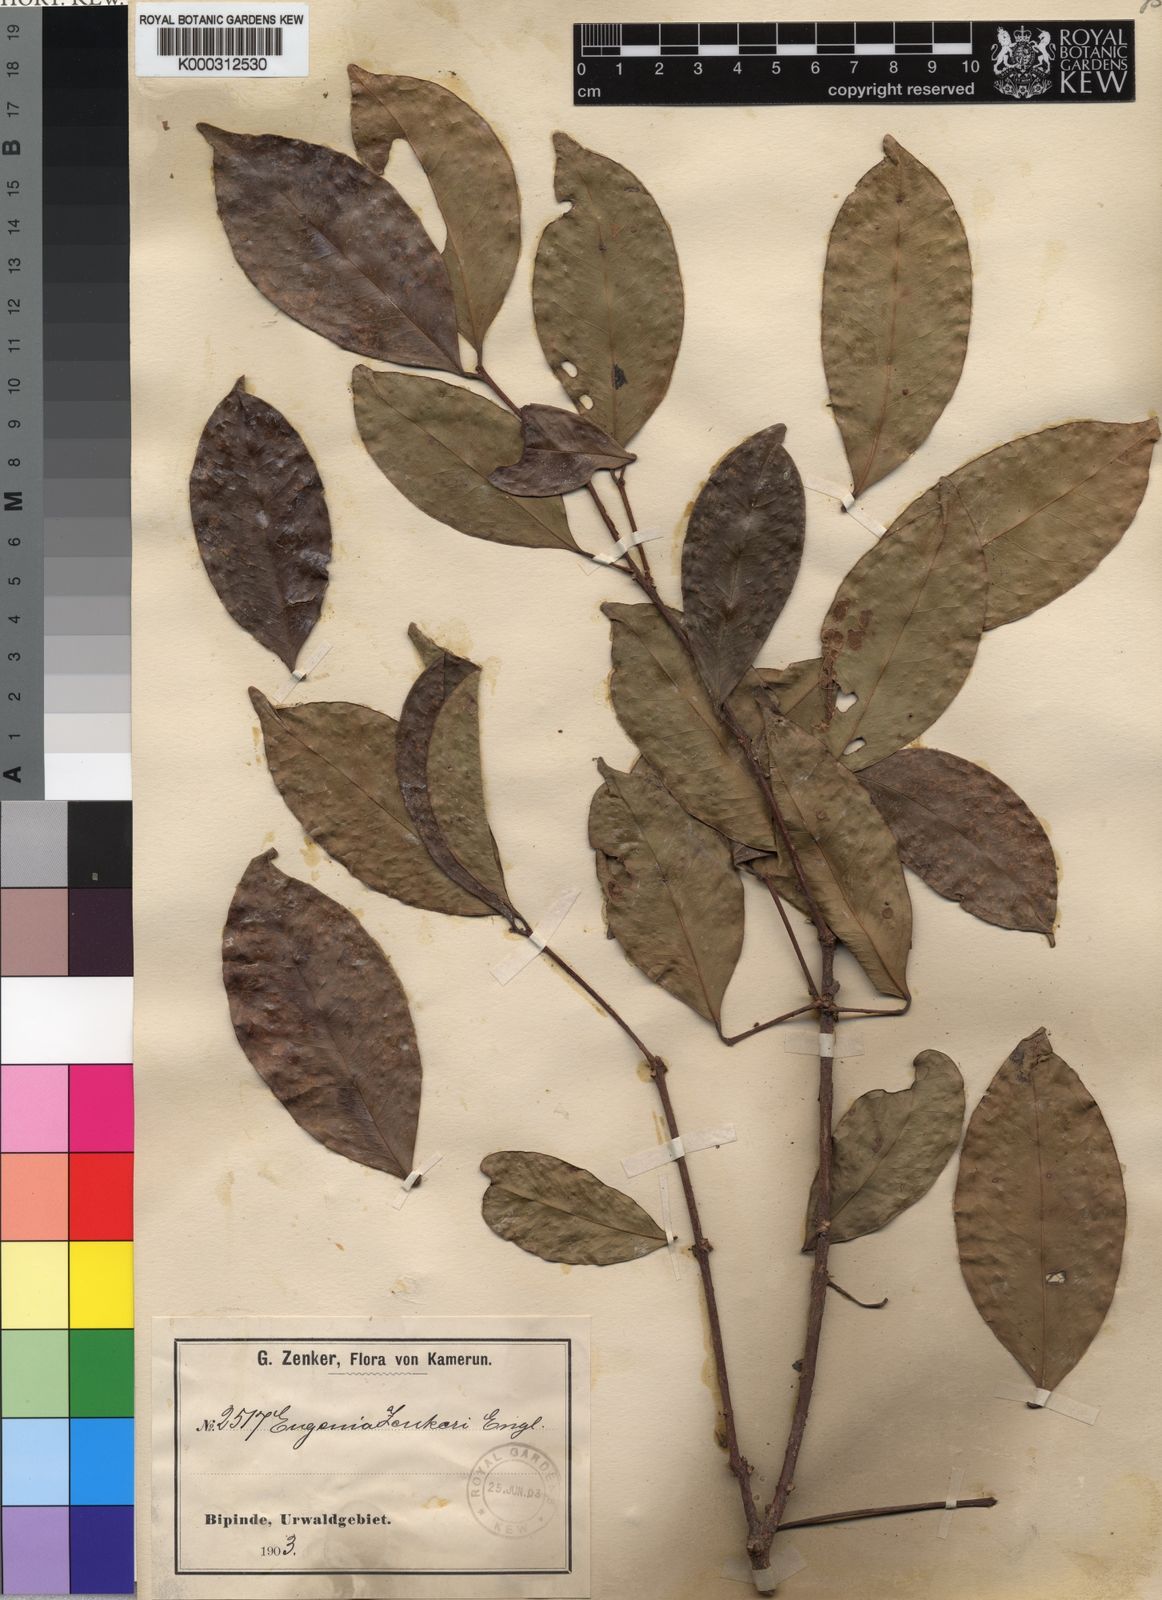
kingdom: Plantae
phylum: Tracheophyta
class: Magnoliopsida
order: Myrtales
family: Myrtaceae
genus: Eugenia
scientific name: Eugenia zenkeri
